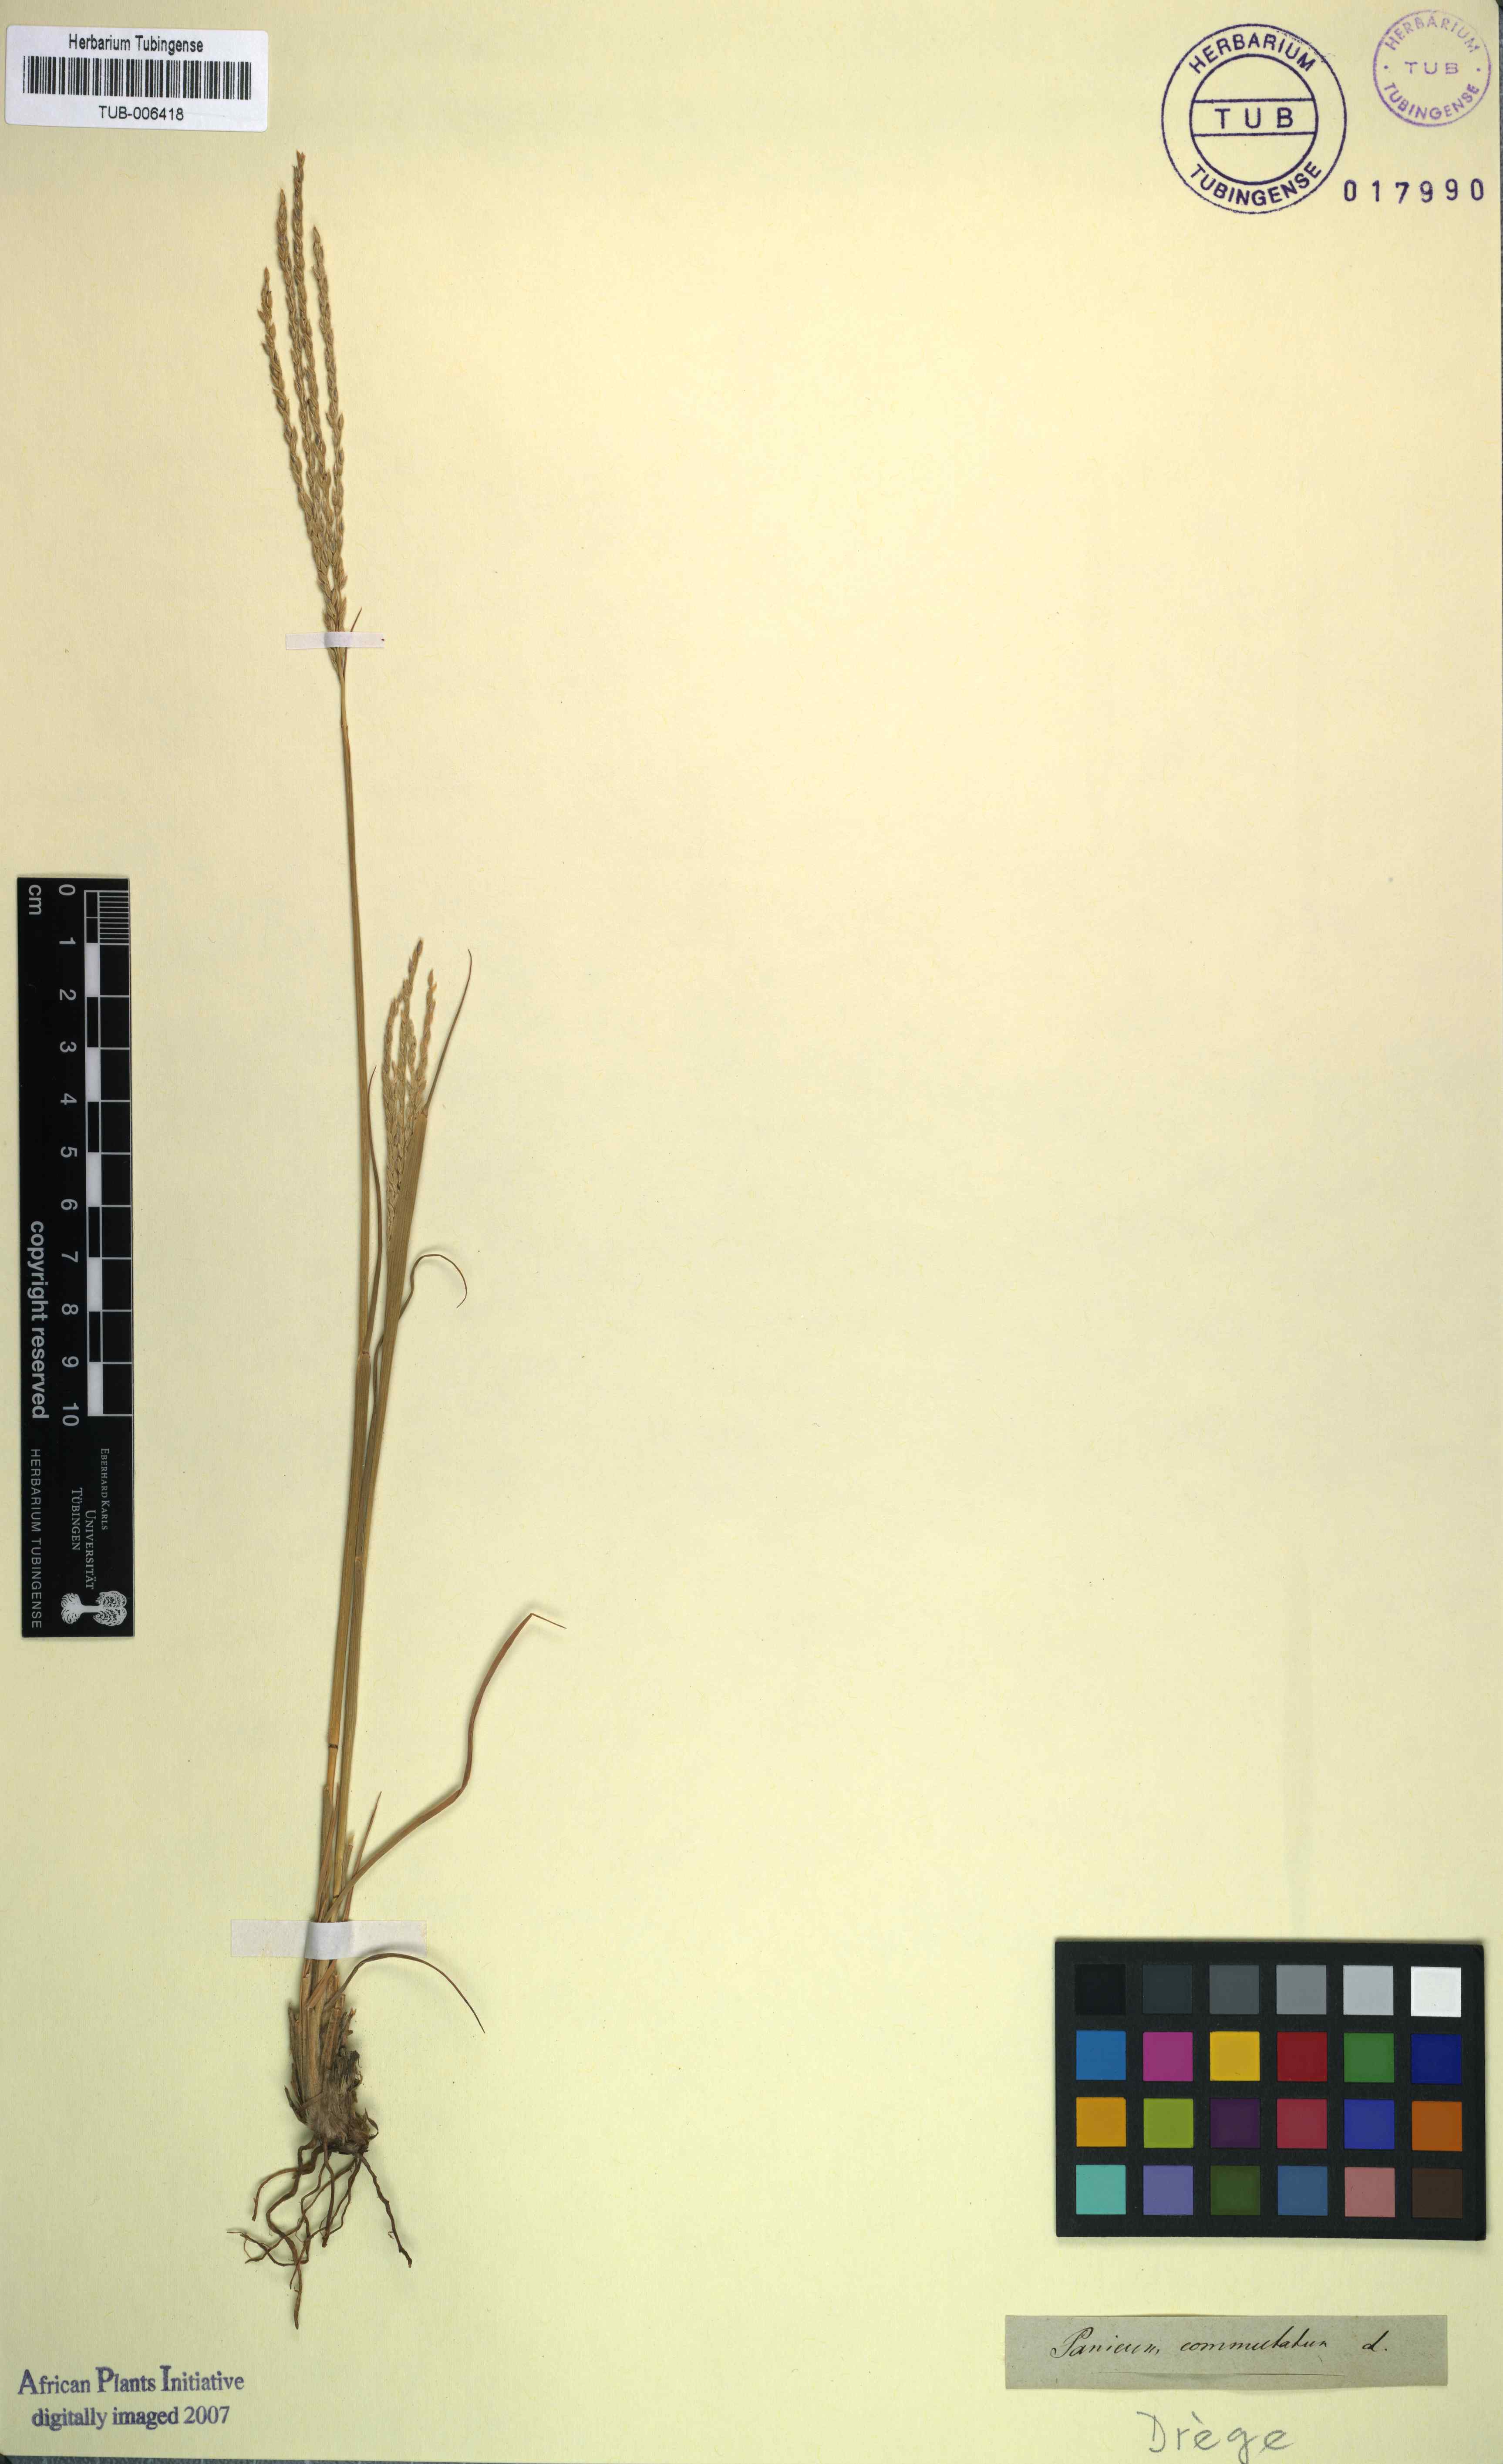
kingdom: Plantae
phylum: Tracheophyta
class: Liliopsida
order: Poales
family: Poaceae
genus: Dichanthelium
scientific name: Dichanthelium dichotomum
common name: Cypress panicgrass
